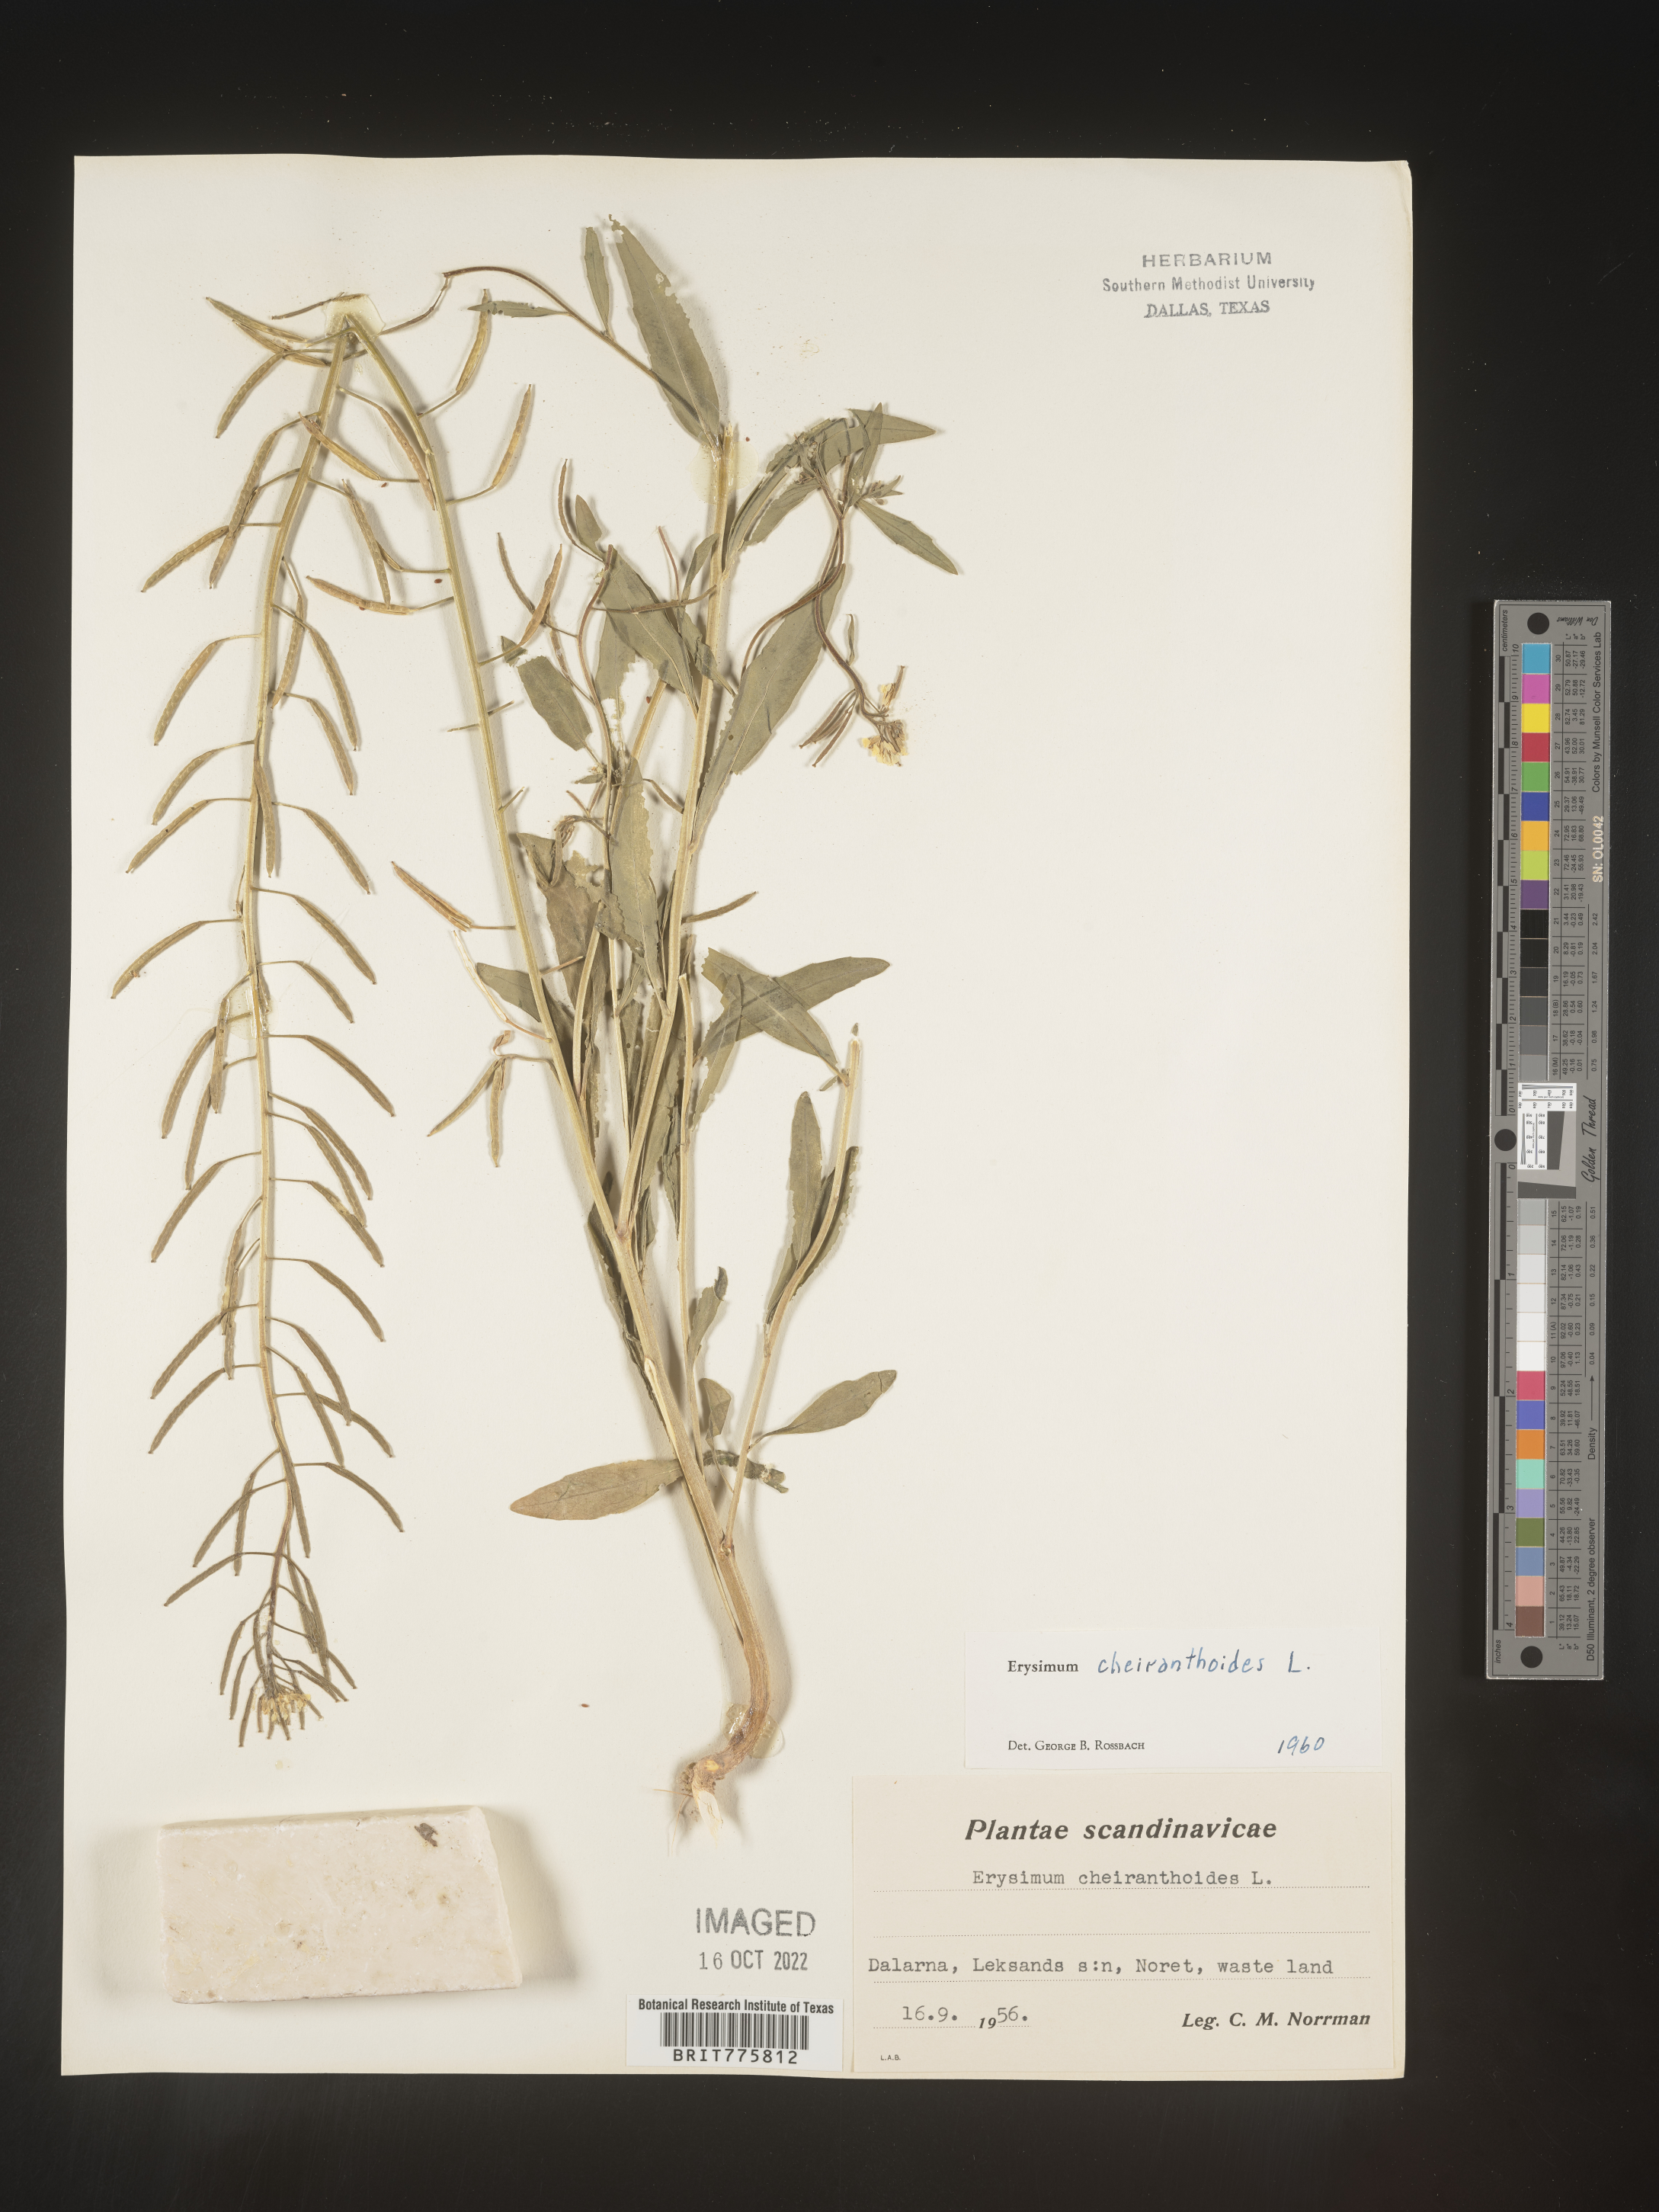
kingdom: Plantae
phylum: Tracheophyta
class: Magnoliopsida
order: Brassicales
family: Brassicaceae
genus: Erysimum
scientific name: Erysimum
